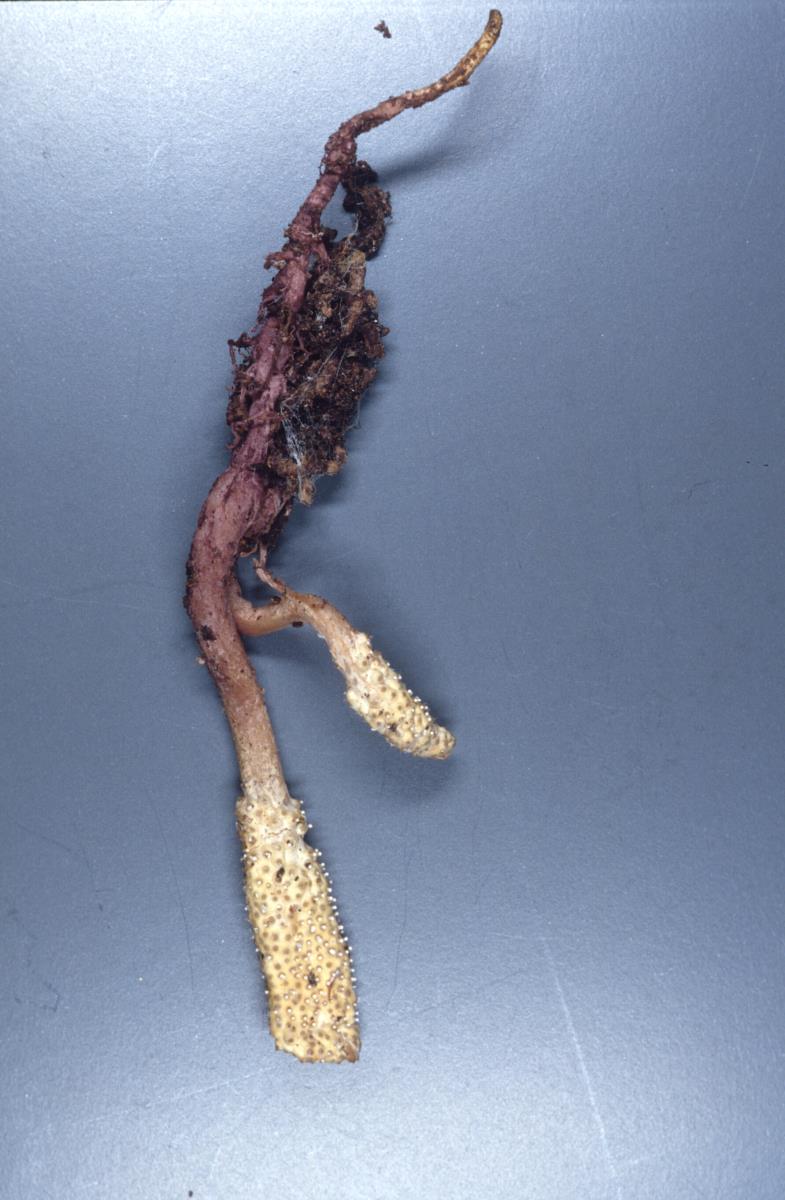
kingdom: Fungi
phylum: Ascomycota
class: Sordariomycetes
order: Hypocreales
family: Cordycipitaceae
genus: Cordyceps
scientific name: Cordyceps
